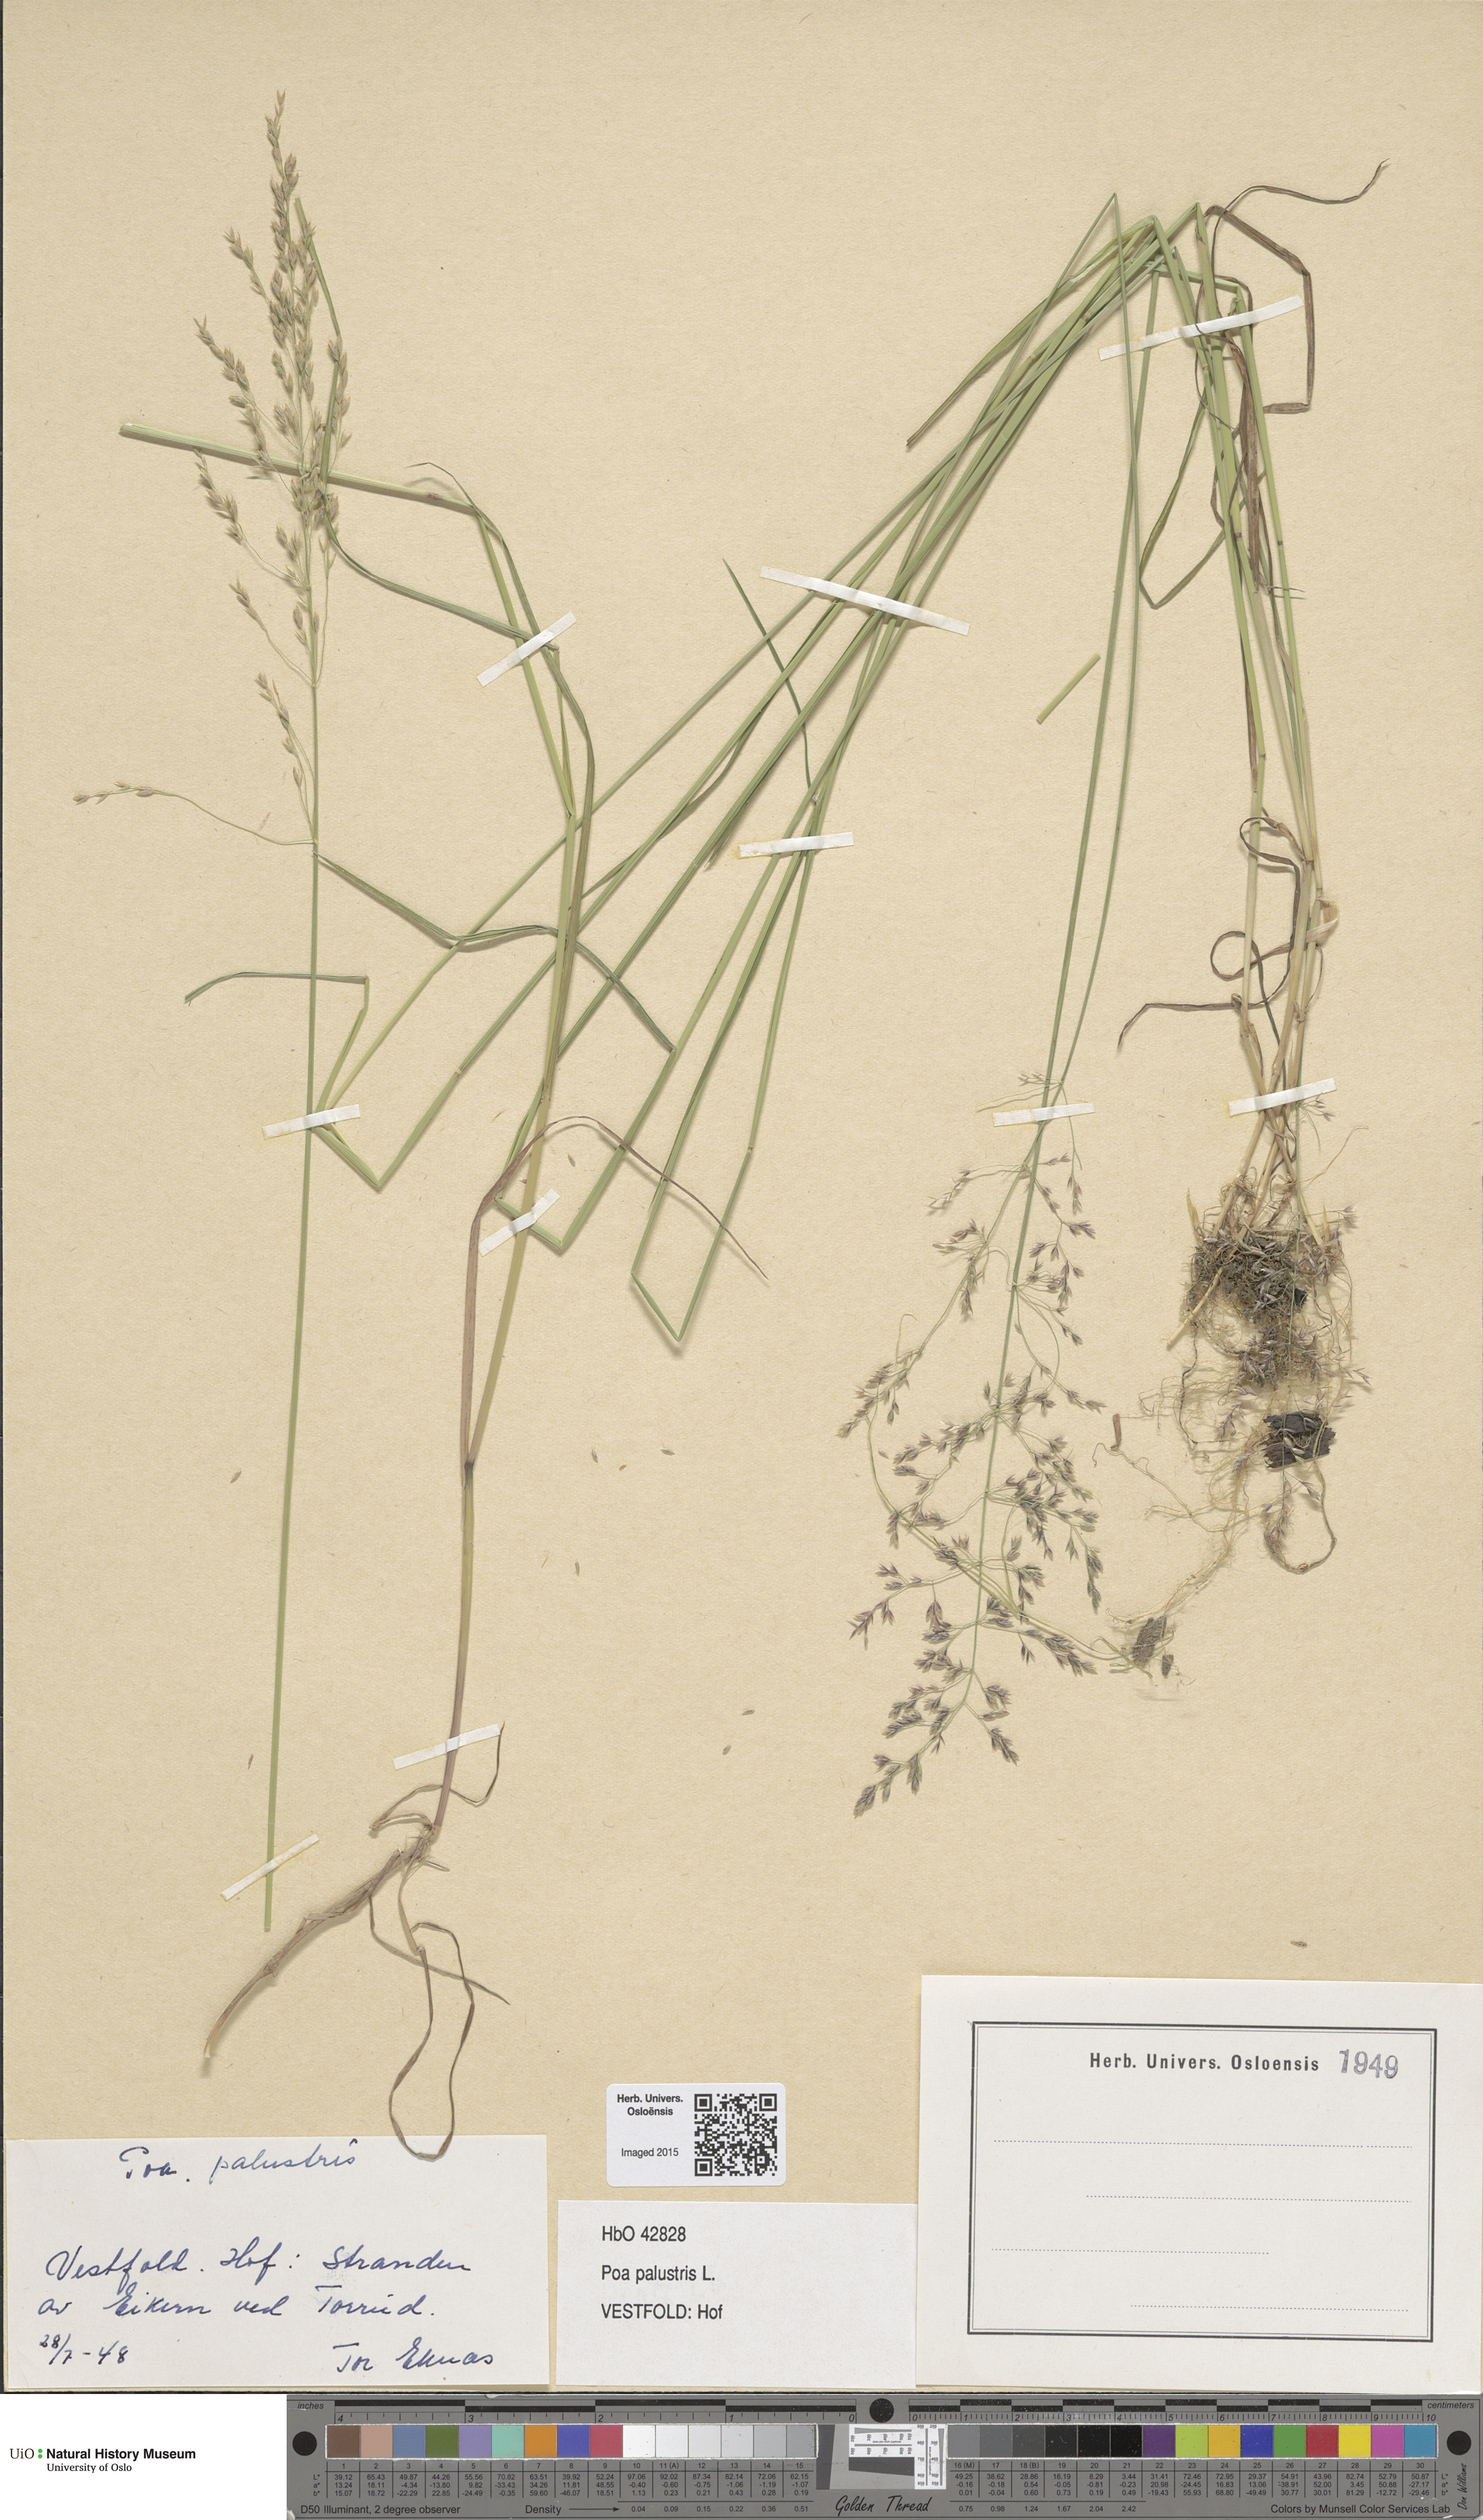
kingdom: Plantae
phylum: Tracheophyta
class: Liliopsida
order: Poales
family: Poaceae
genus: Poa
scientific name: Poa palustris
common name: Swamp meadow-grass
